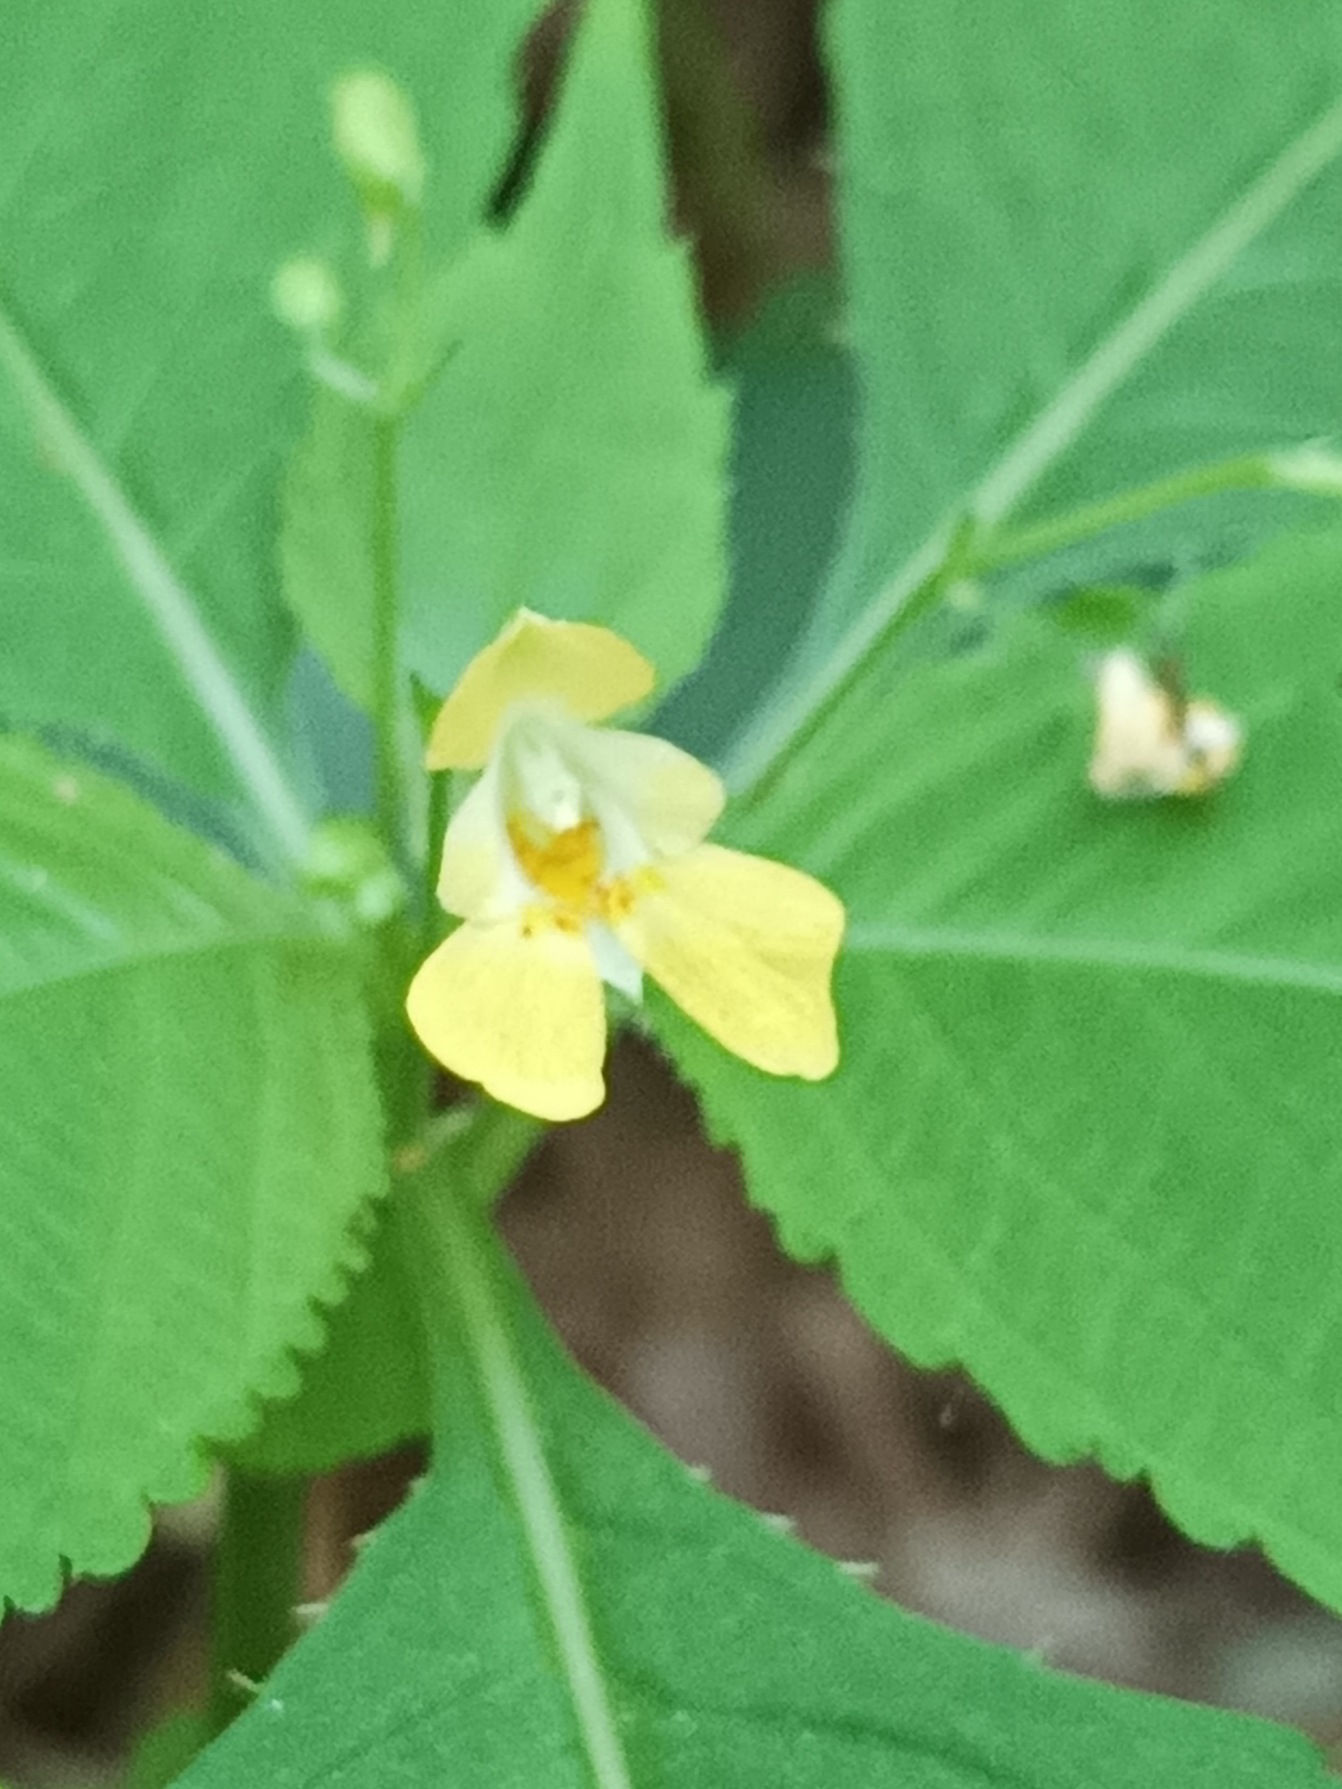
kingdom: Plantae
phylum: Tracheophyta
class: Magnoliopsida
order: Ericales
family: Balsaminaceae
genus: Impatiens
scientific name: Impatiens parviflora
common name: Småblomstret balsamin
